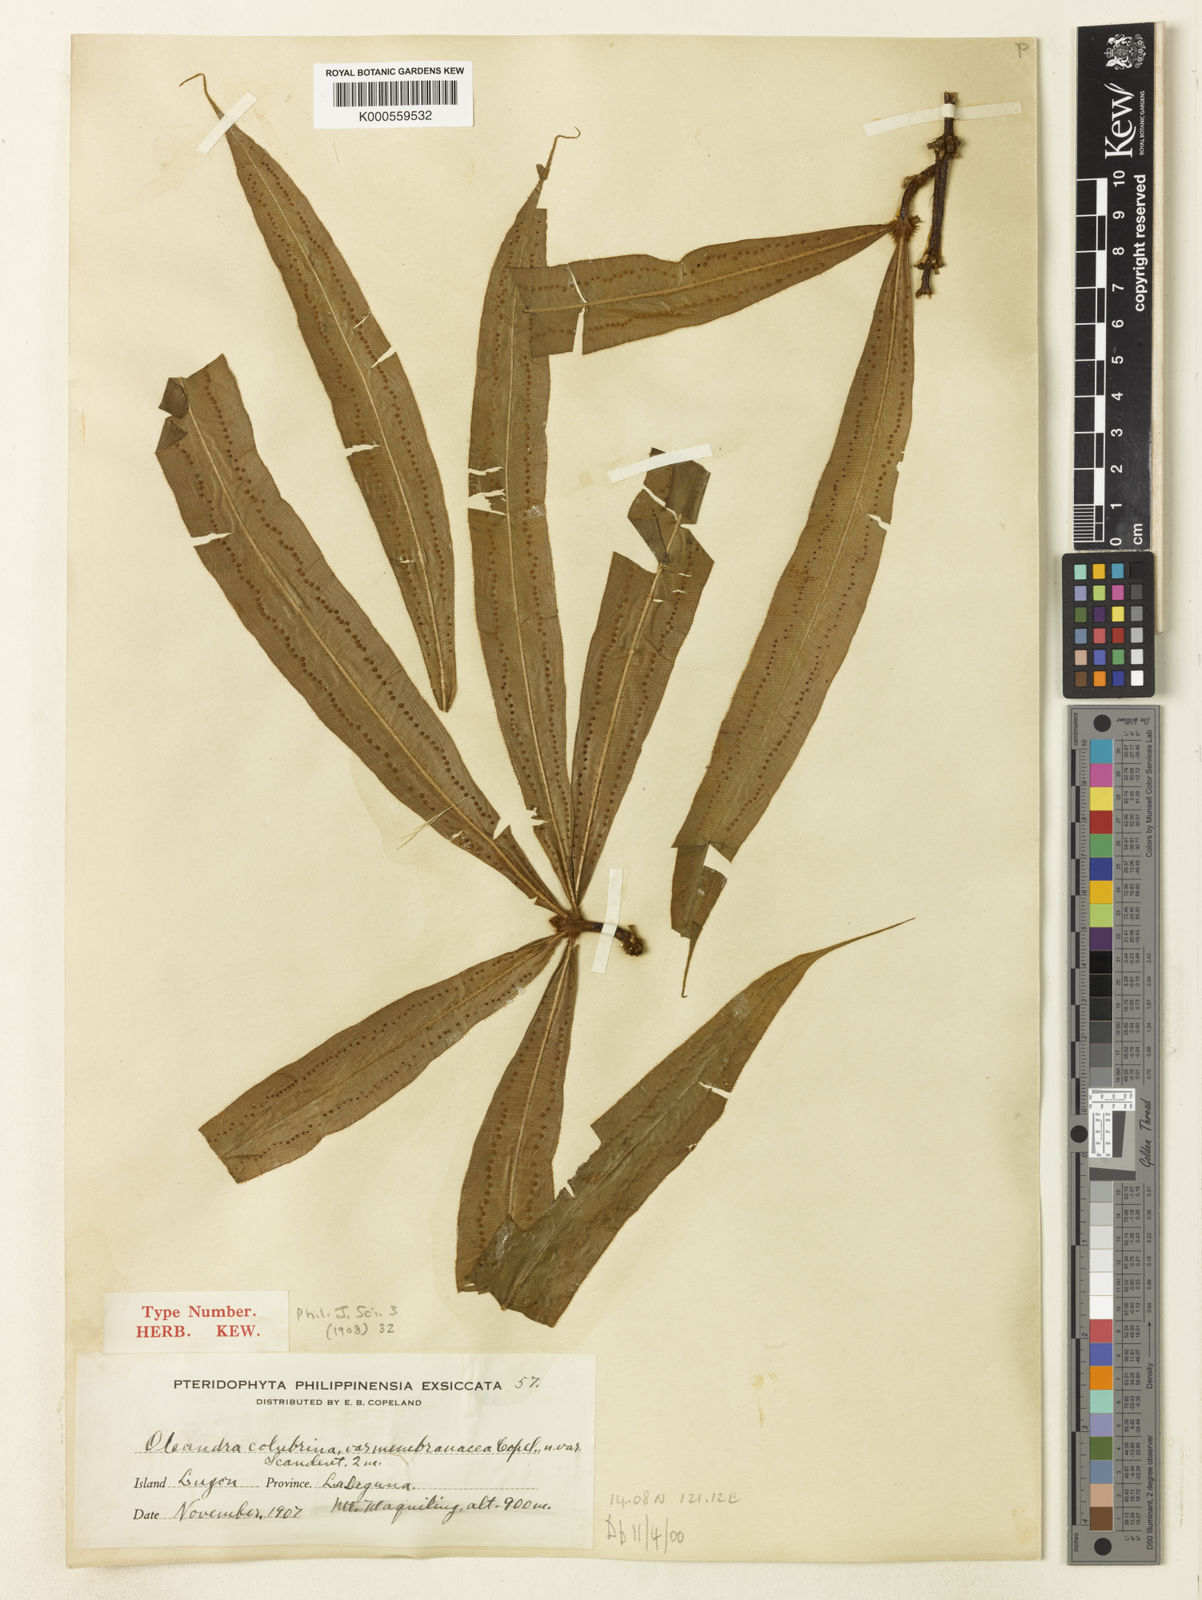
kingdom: Plantae
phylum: Tracheophyta
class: Polypodiopsida
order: Polypodiales
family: Oleandraceae
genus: Oleandra
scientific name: Oleandra neriiformis
